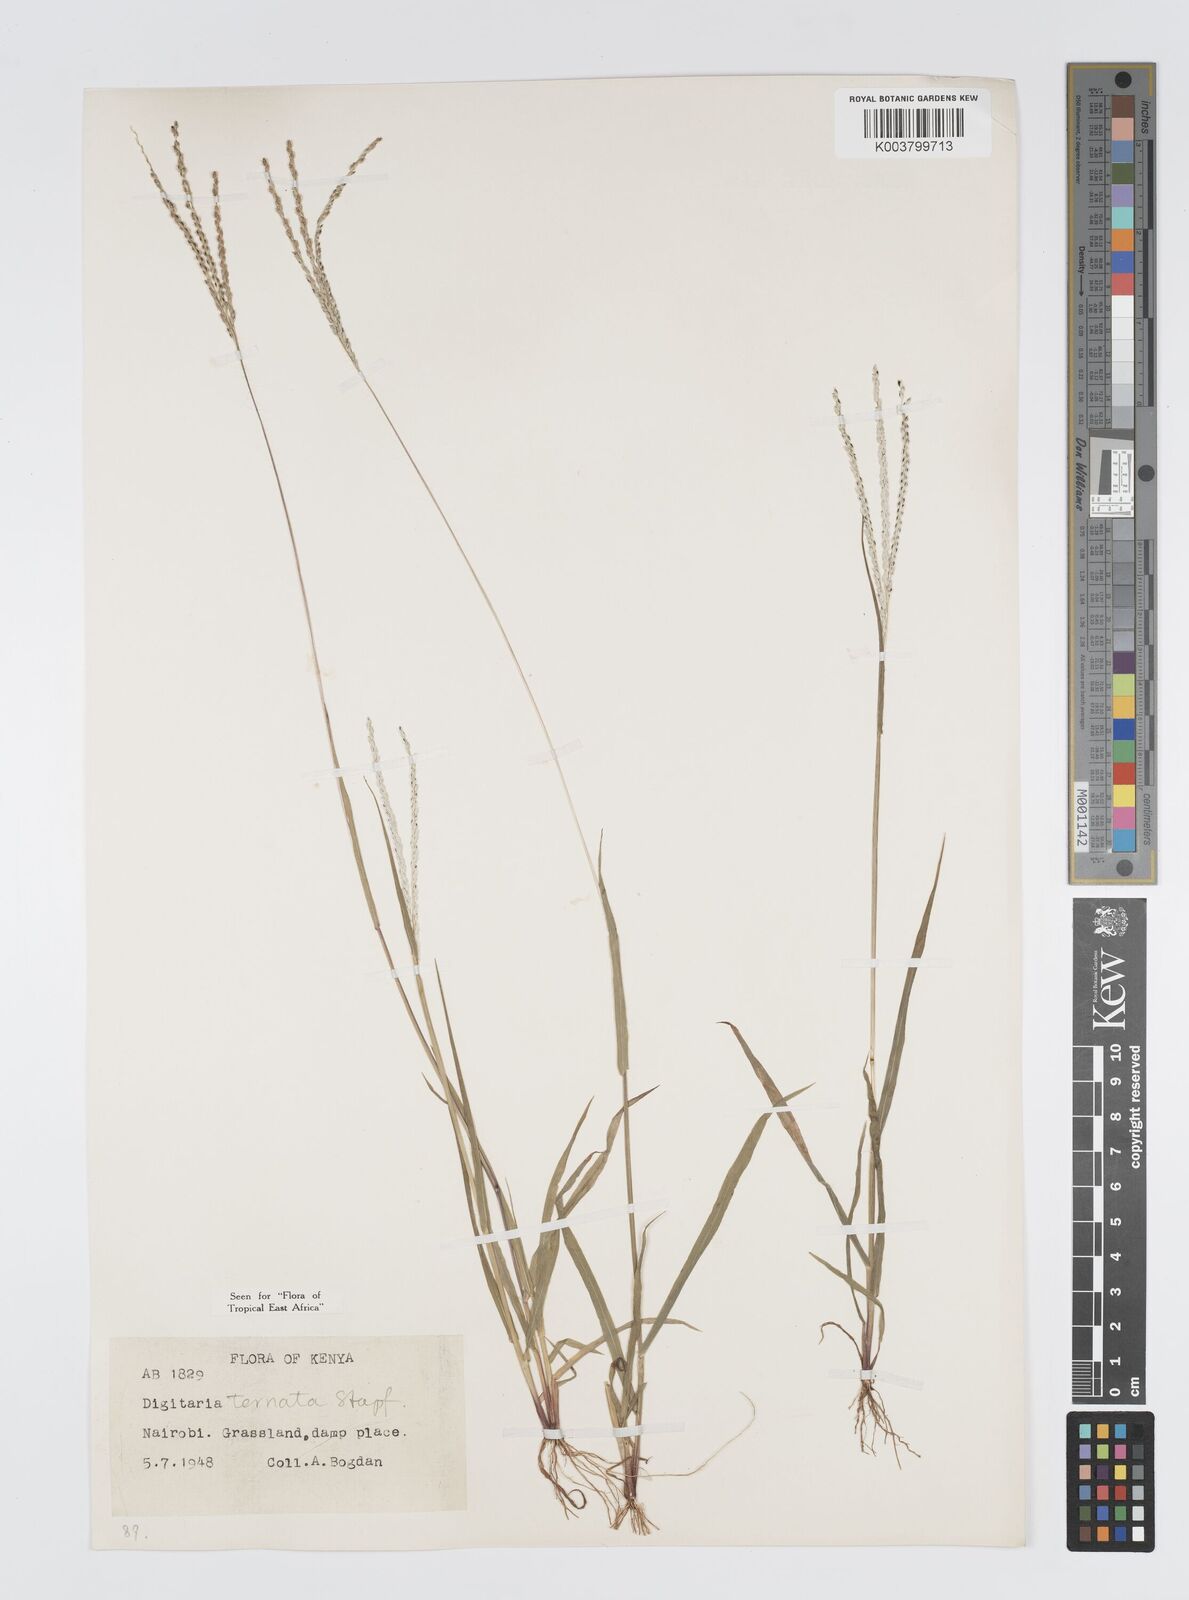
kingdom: Plantae
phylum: Tracheophyta
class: Liliopsida
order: Poales
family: Poaceae
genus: Digitaria
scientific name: Digitaria ternata
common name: Blackseed crabgrass
